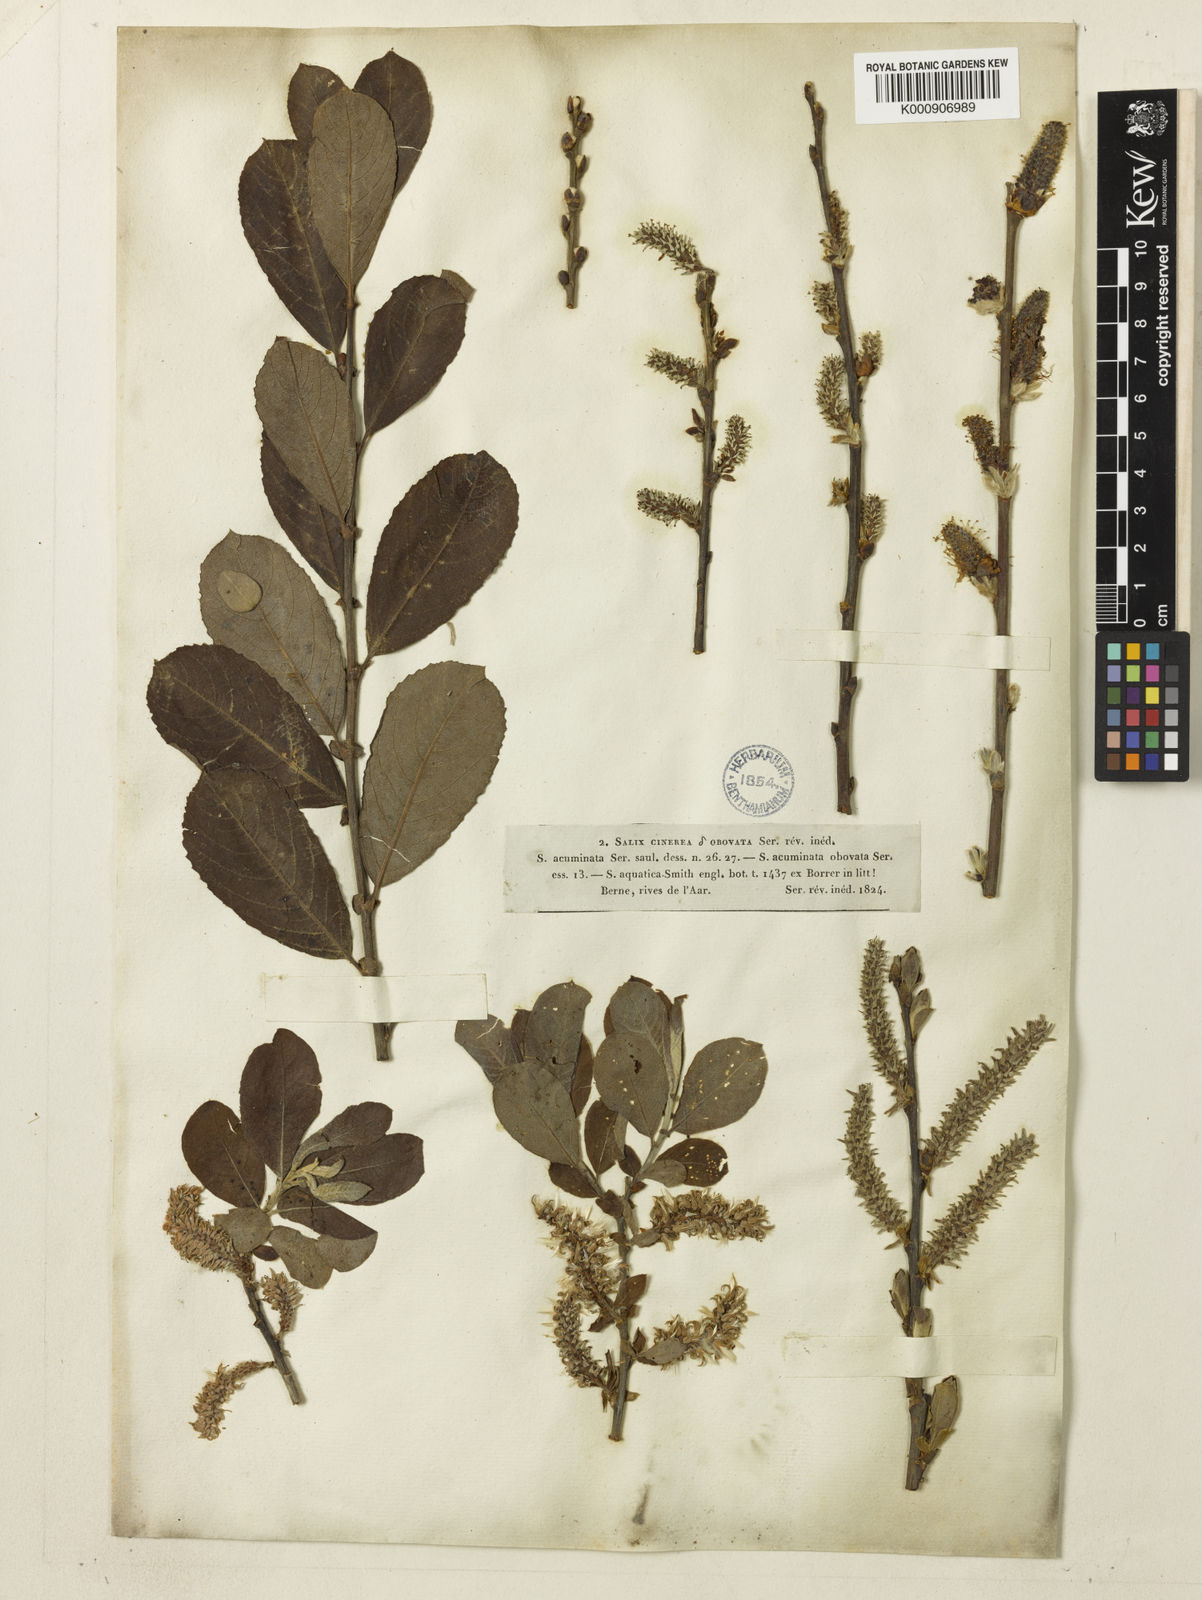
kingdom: Plantae
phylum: Tracheophyta
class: Magnoliopsida
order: Malpighiales
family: Salicaceae
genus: Salix
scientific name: Salix cinerea
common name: Common sallow
